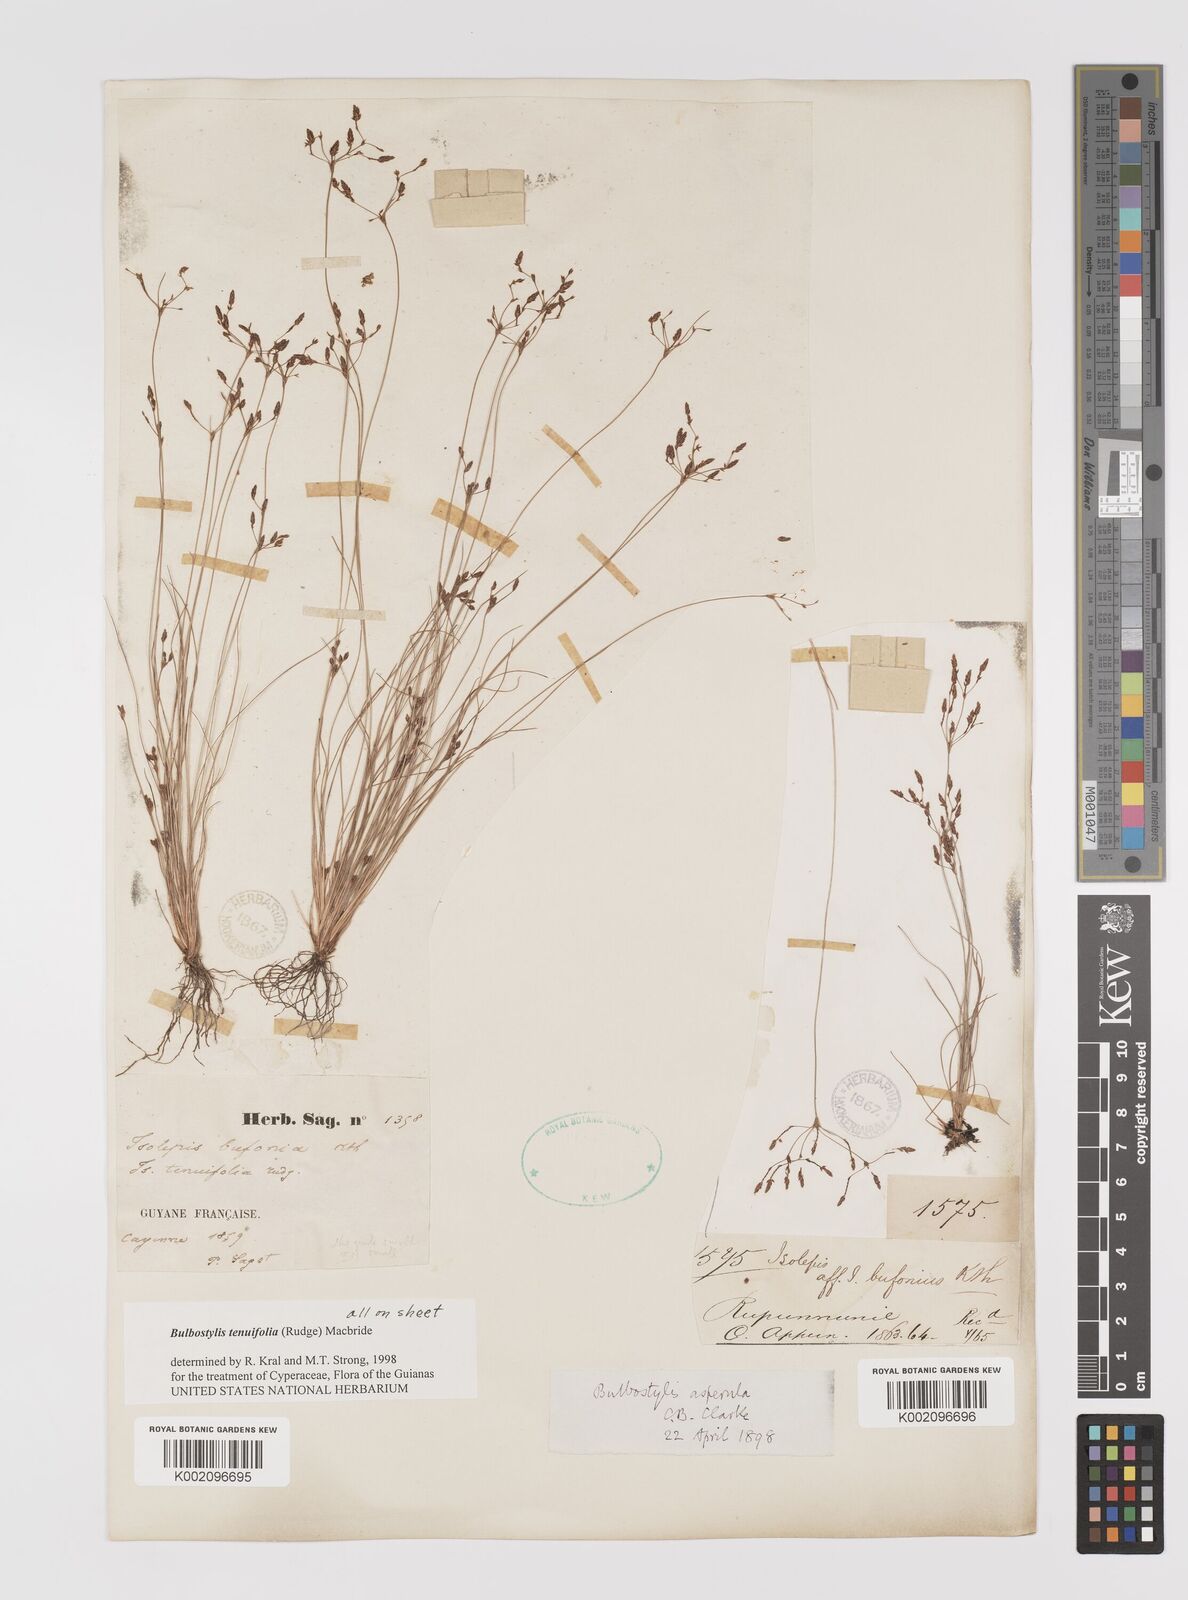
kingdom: Plantae
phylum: Tracheophyta
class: Liliopsida
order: Poales
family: Cyperaceae
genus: Bulbostylis
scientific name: Bulbostylis tenuifolia
